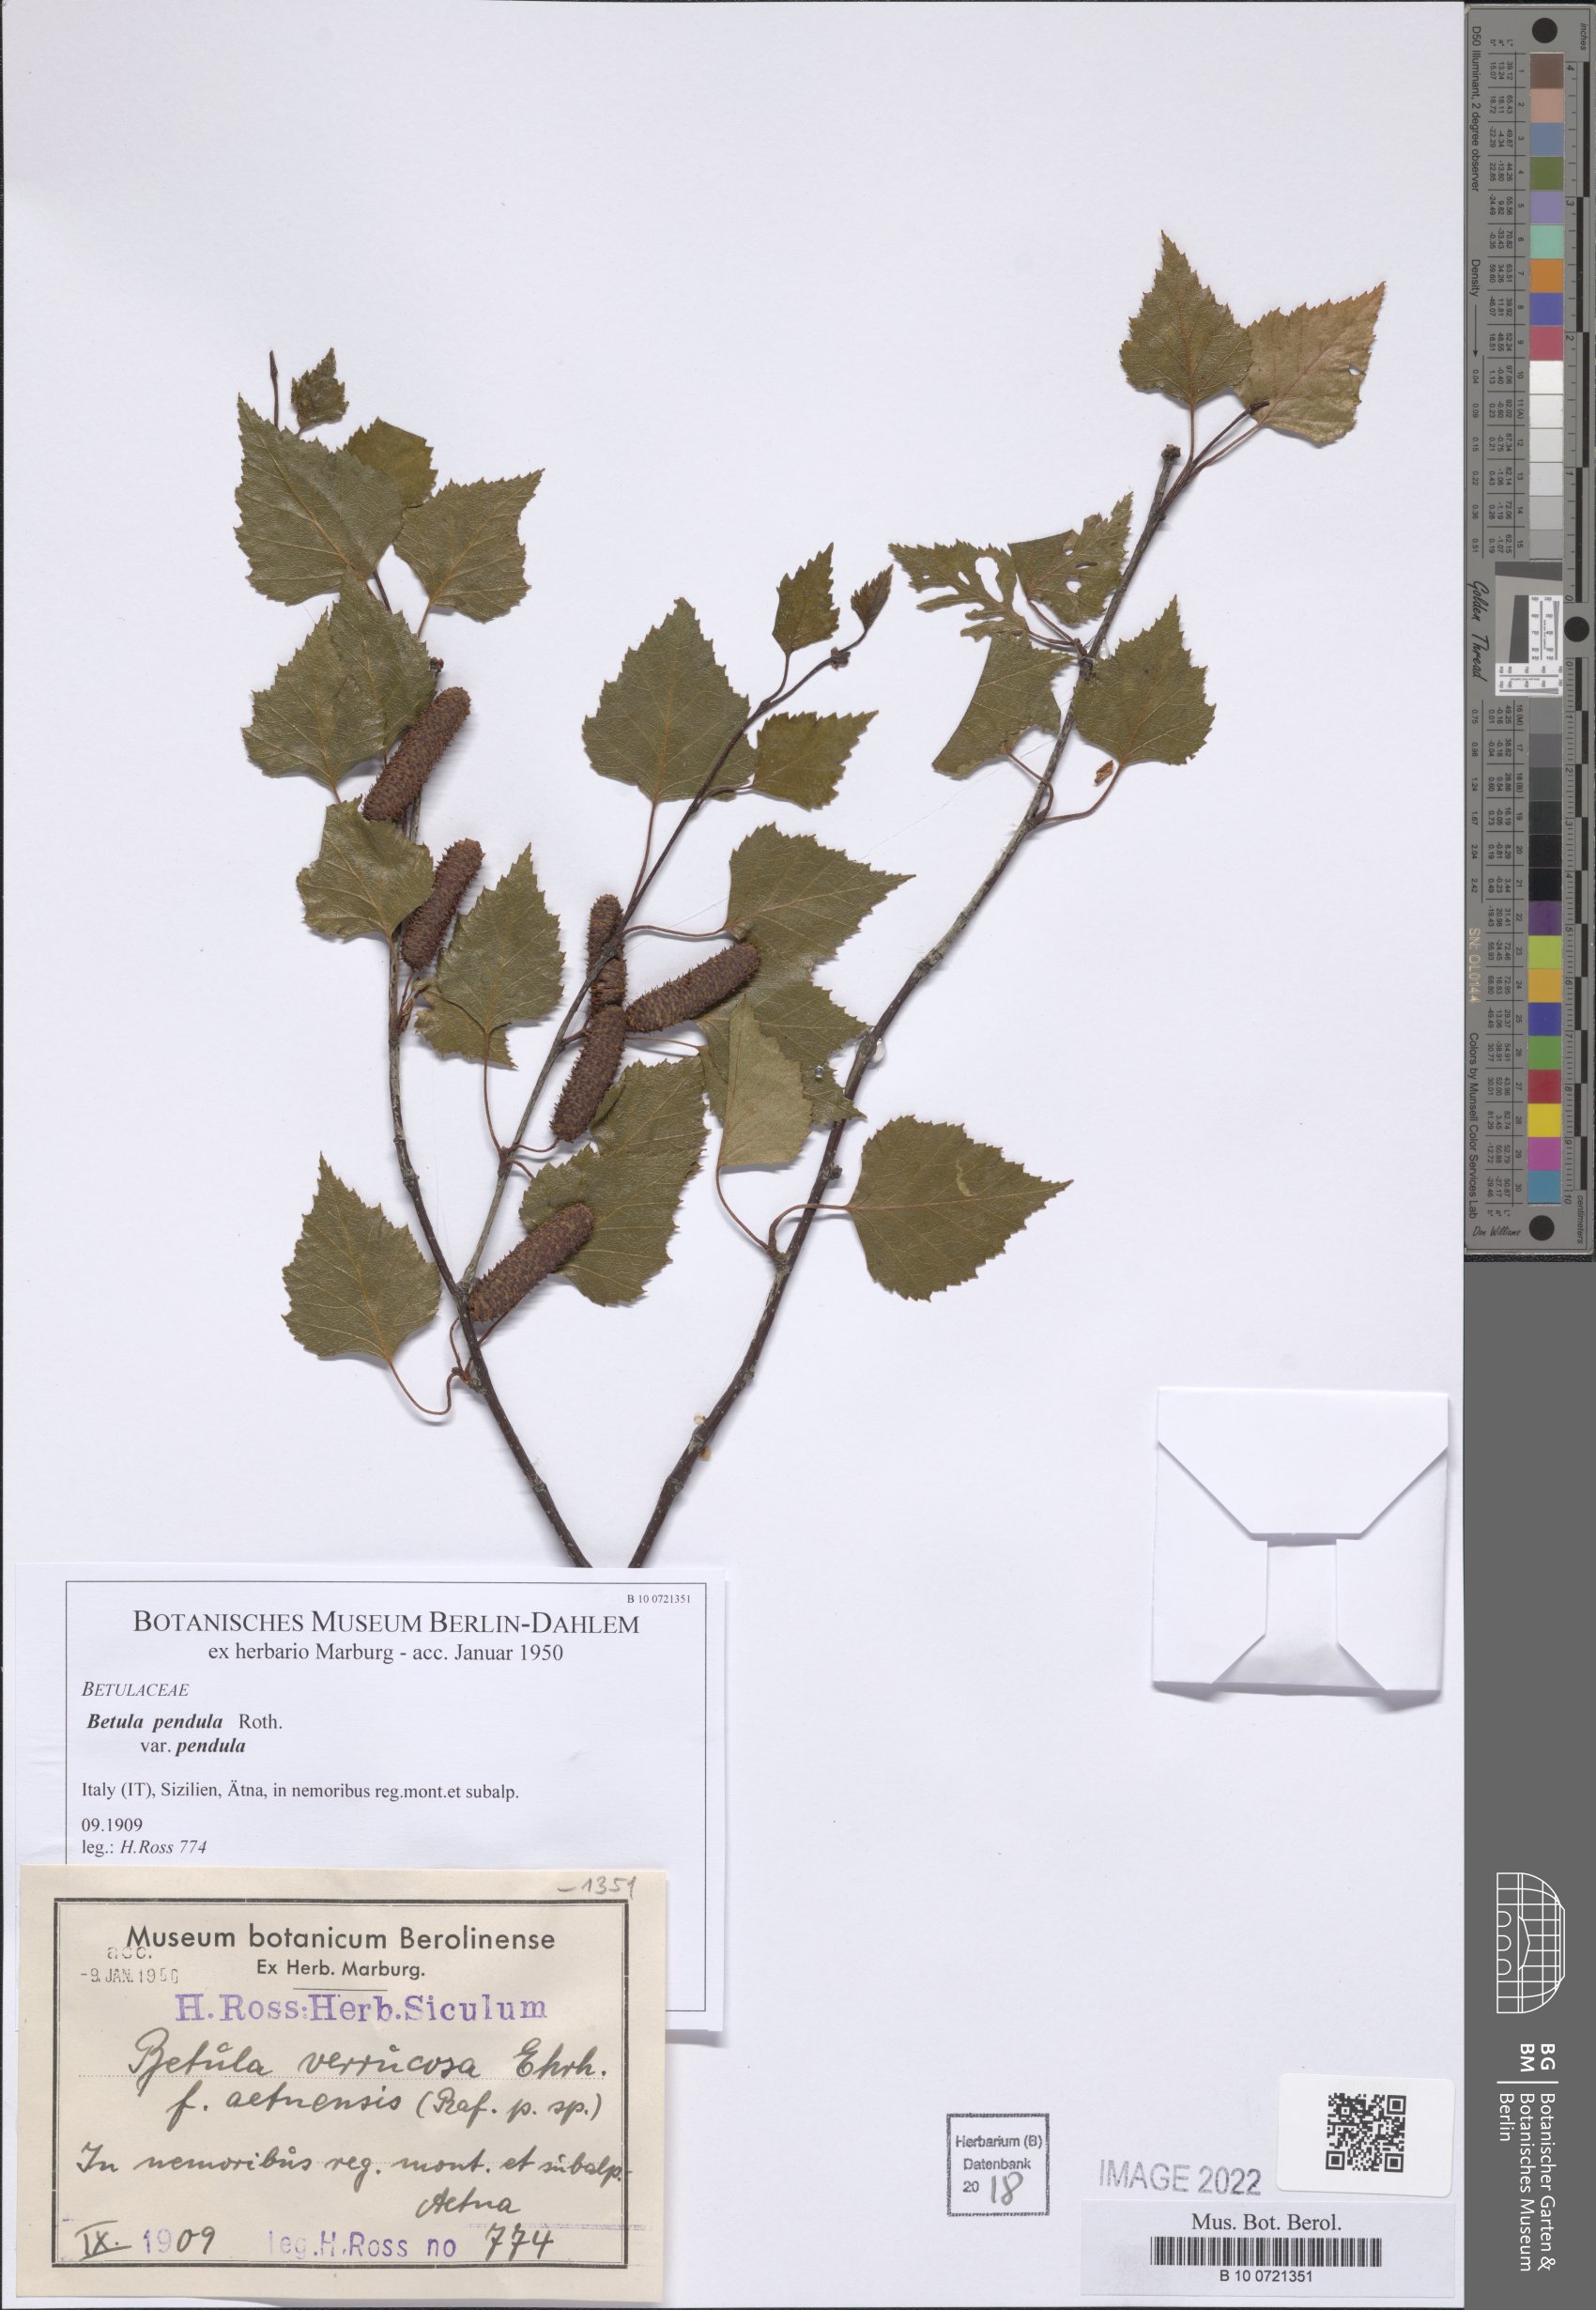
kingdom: Plantae
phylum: Tracheophyta
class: Magnoliopsida
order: Fagales
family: Betulaceae
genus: Betula
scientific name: Betula pendula
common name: Silver birch
